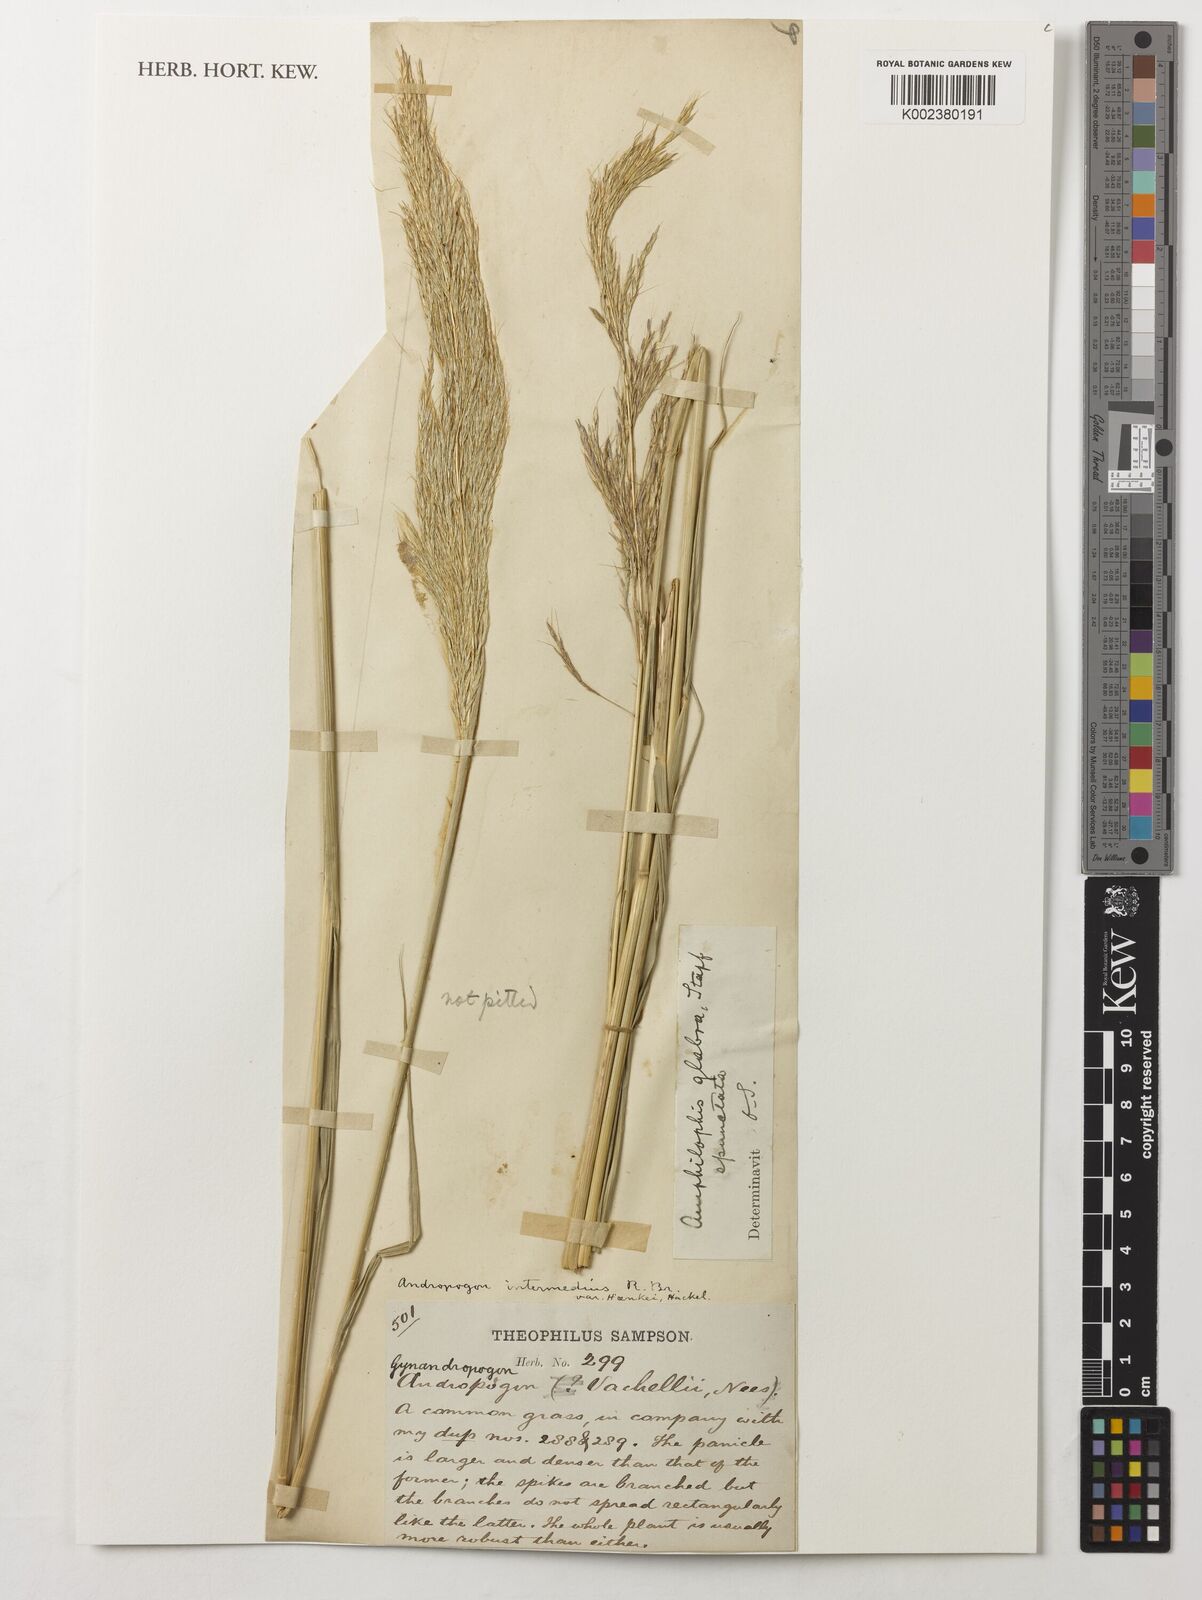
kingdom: Plantae
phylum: Tracheophyta
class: Liliopsida
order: Poales
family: Poaceae
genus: Bothriochloa
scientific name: Bothriochloa glabra
